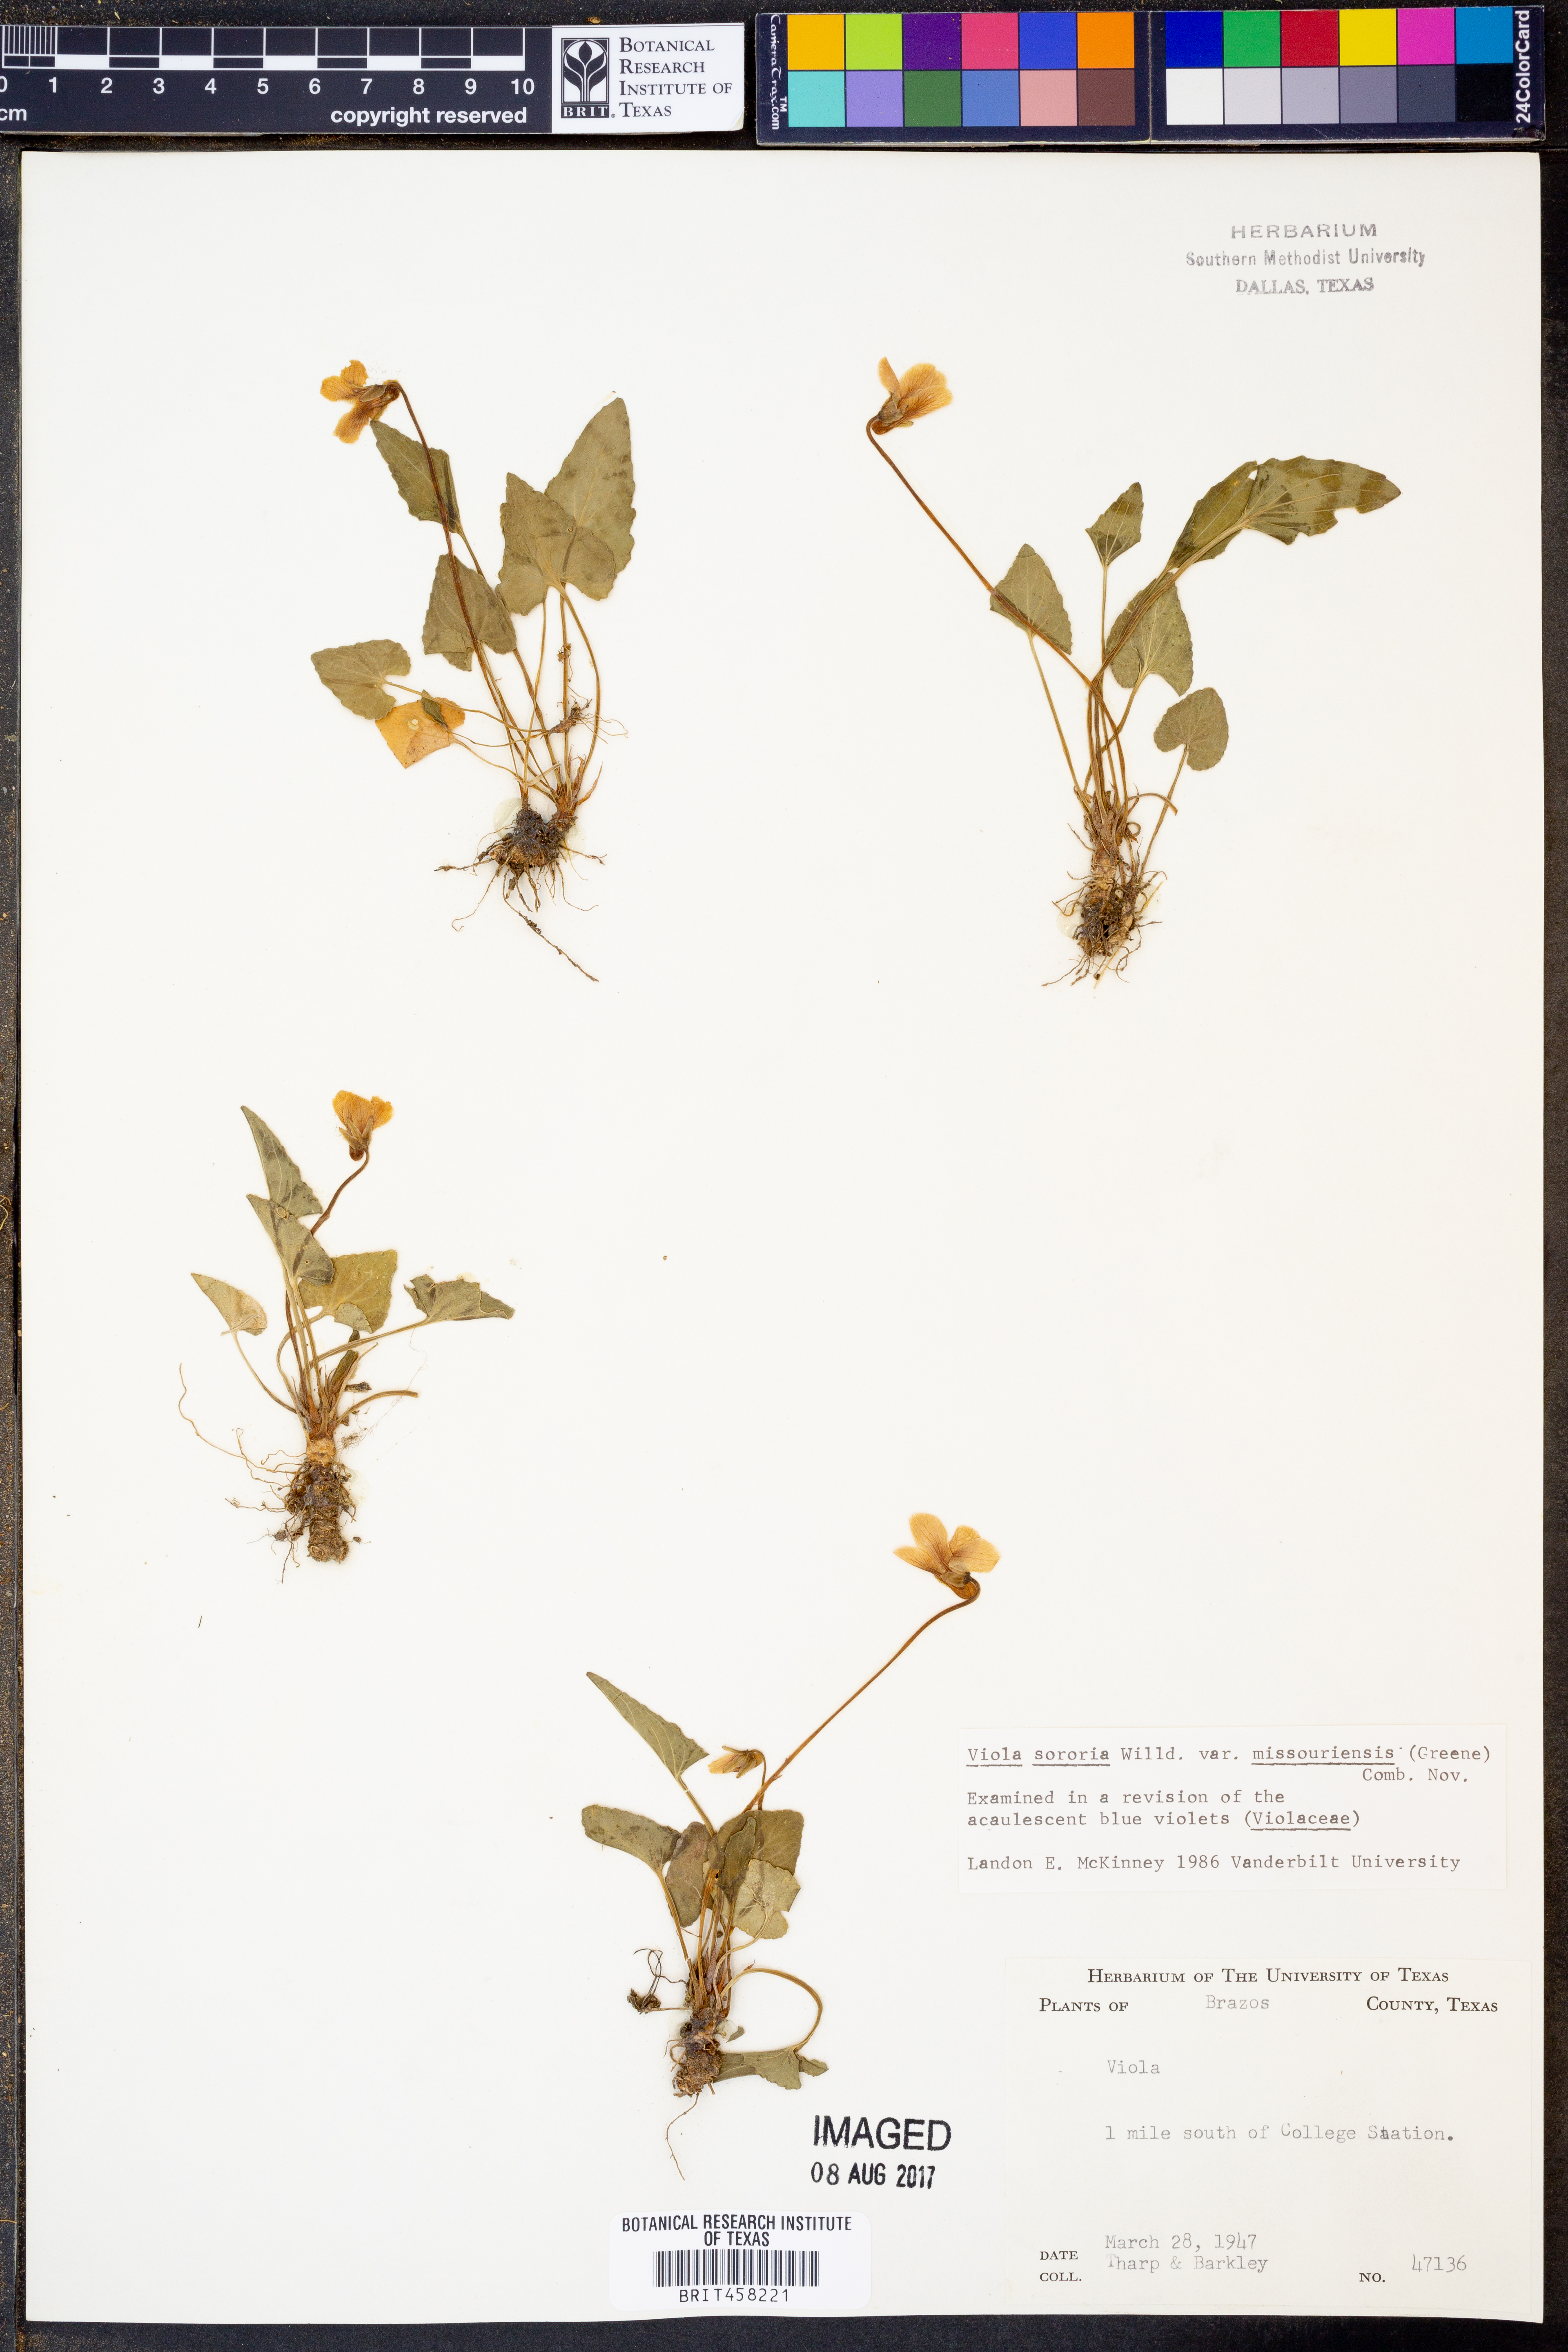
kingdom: Plantae
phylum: Tracheophyta
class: Magnoliopsida
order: Malpighiales
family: Violaceae
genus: Viola
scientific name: Viola missouriensis
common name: Missouri violet
